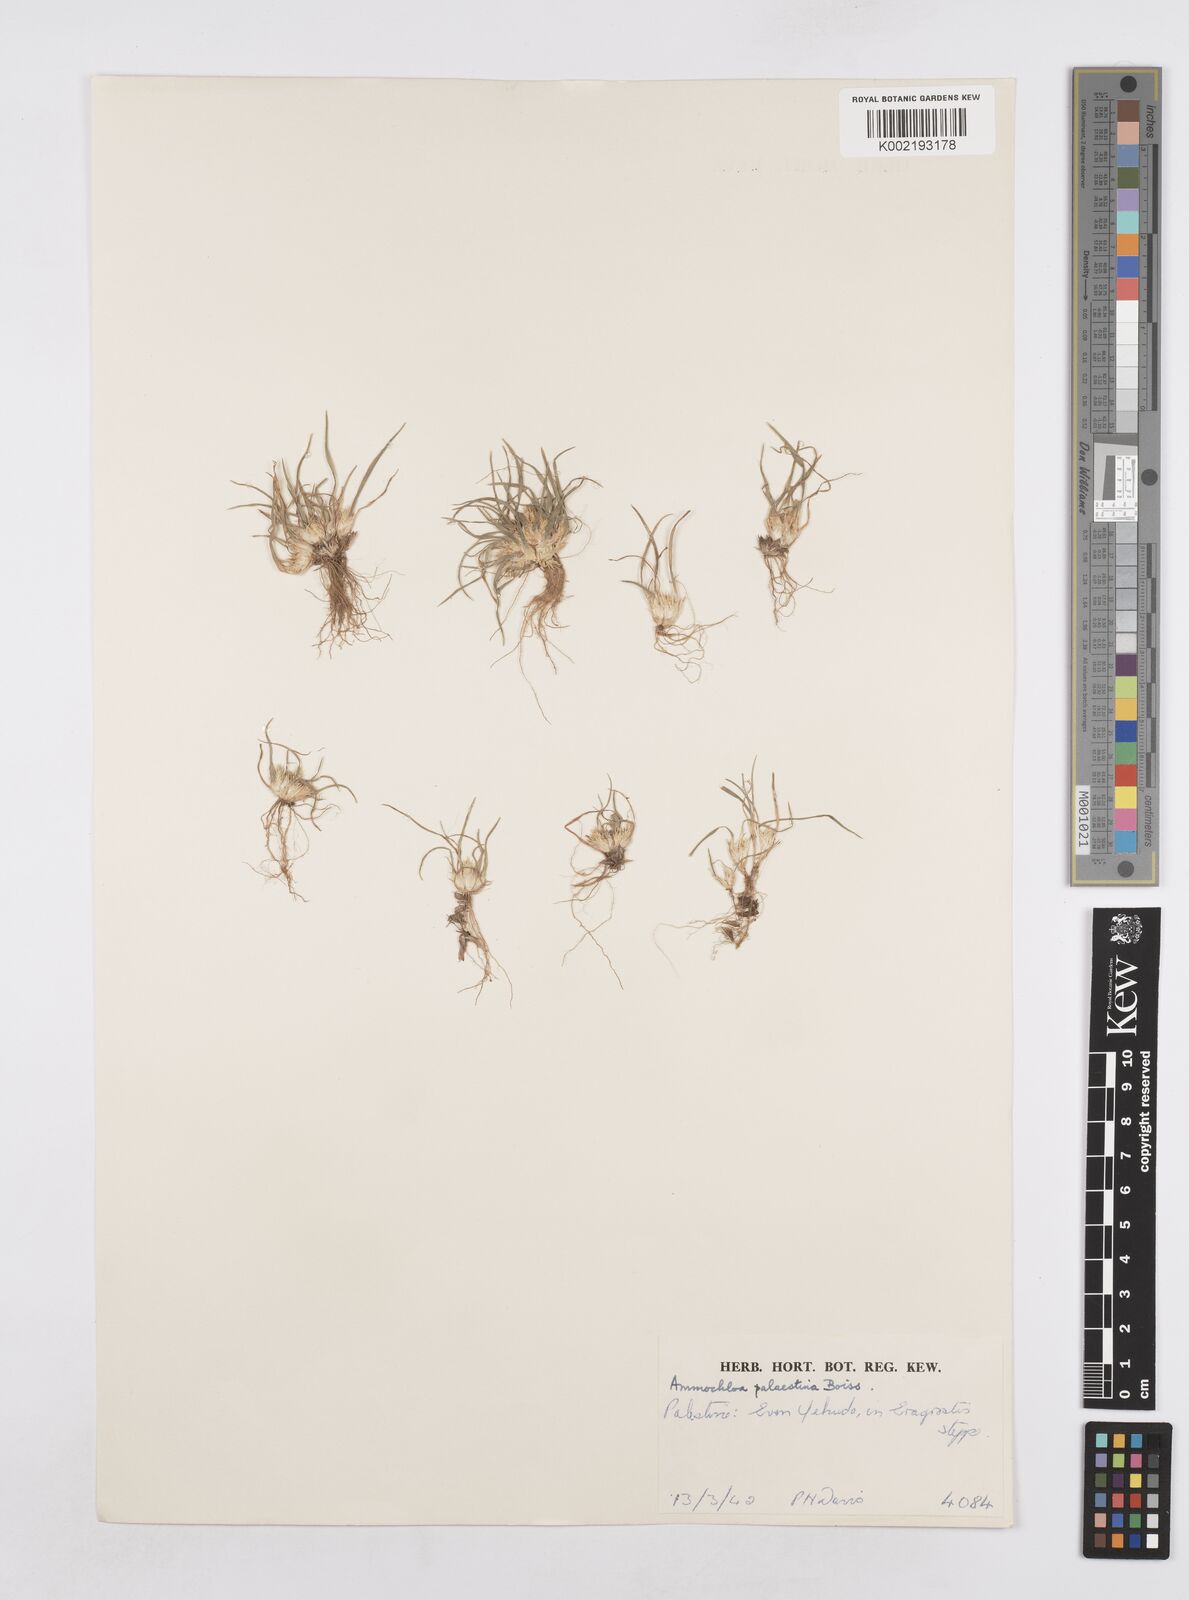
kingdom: Plantae
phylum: Tracheophyta
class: Liliopsida
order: Poales
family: Poaceae
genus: Ammochloa
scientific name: Ammochloa palaestina
